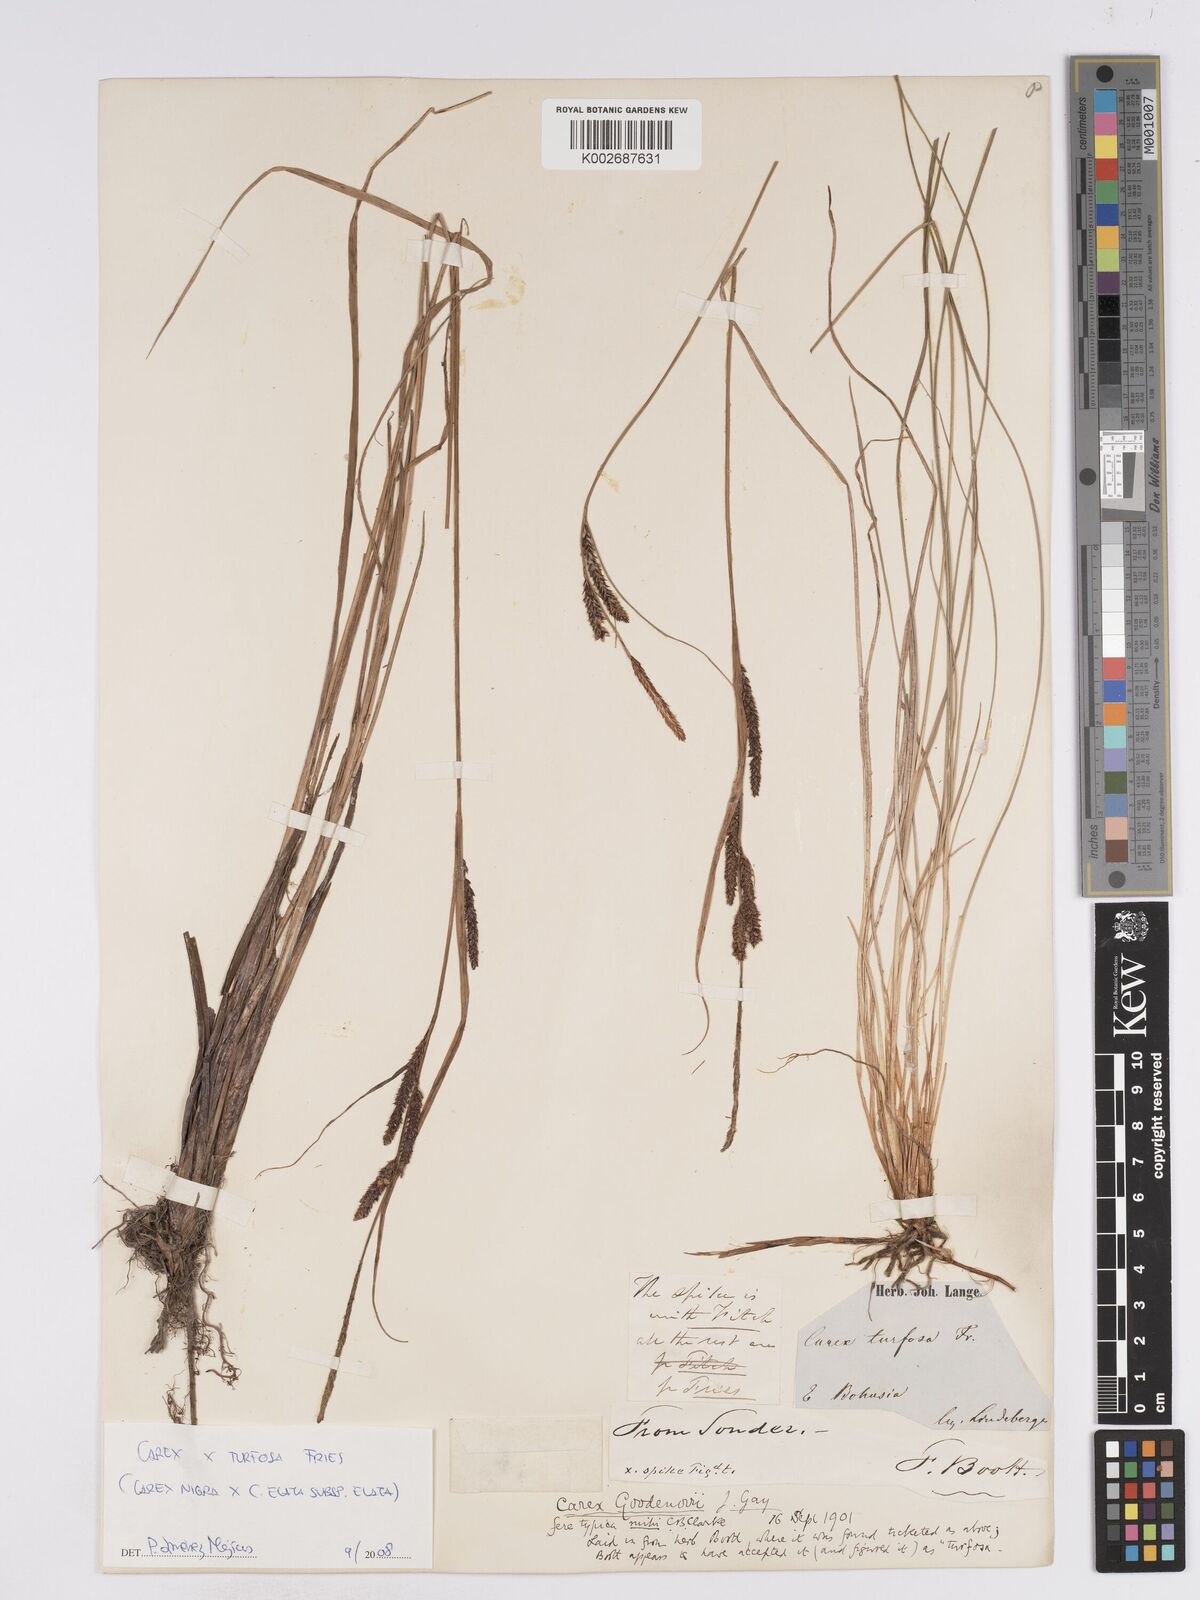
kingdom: Plantae
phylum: Tracheophyta
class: Liliopsida
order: Poales
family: Cyperaceae
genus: Carex
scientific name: Carex nigra
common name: Common sedge
